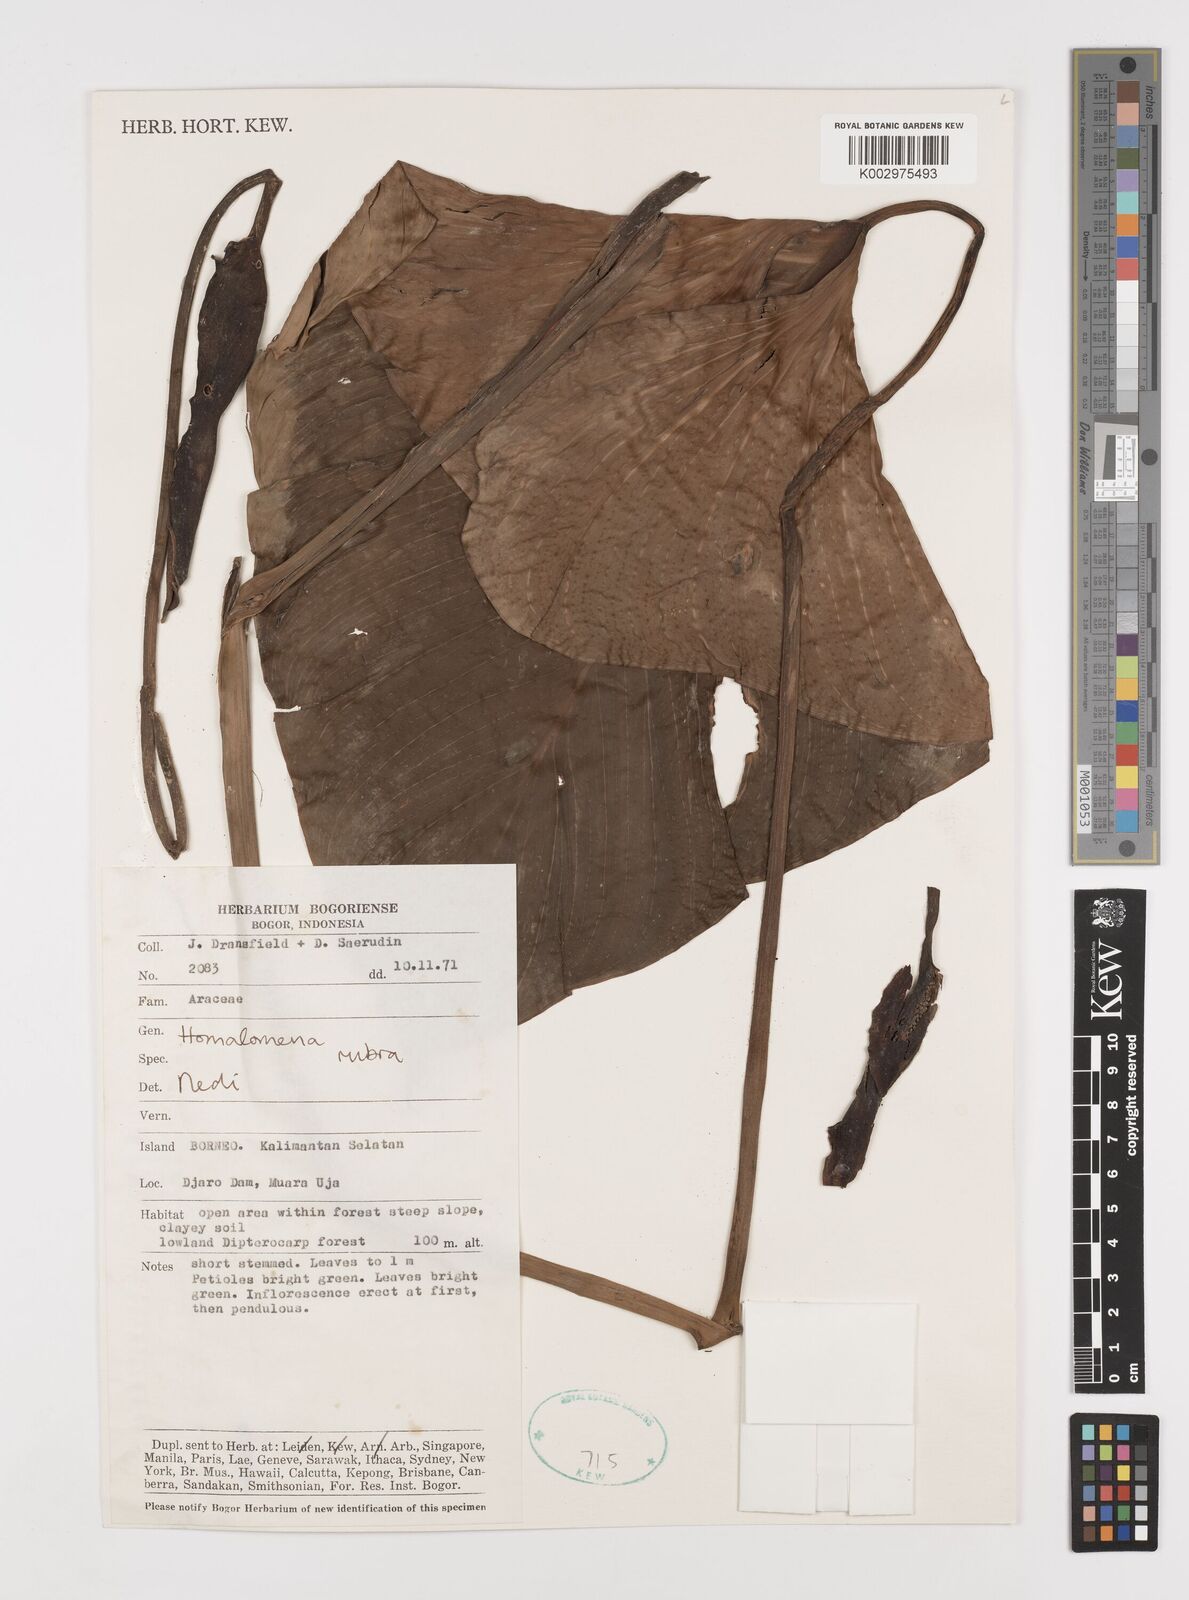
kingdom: Plantae
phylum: Tracheophyta
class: Liliopsida
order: Alismatales
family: Araceae
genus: Homalomena
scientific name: Homalomena
